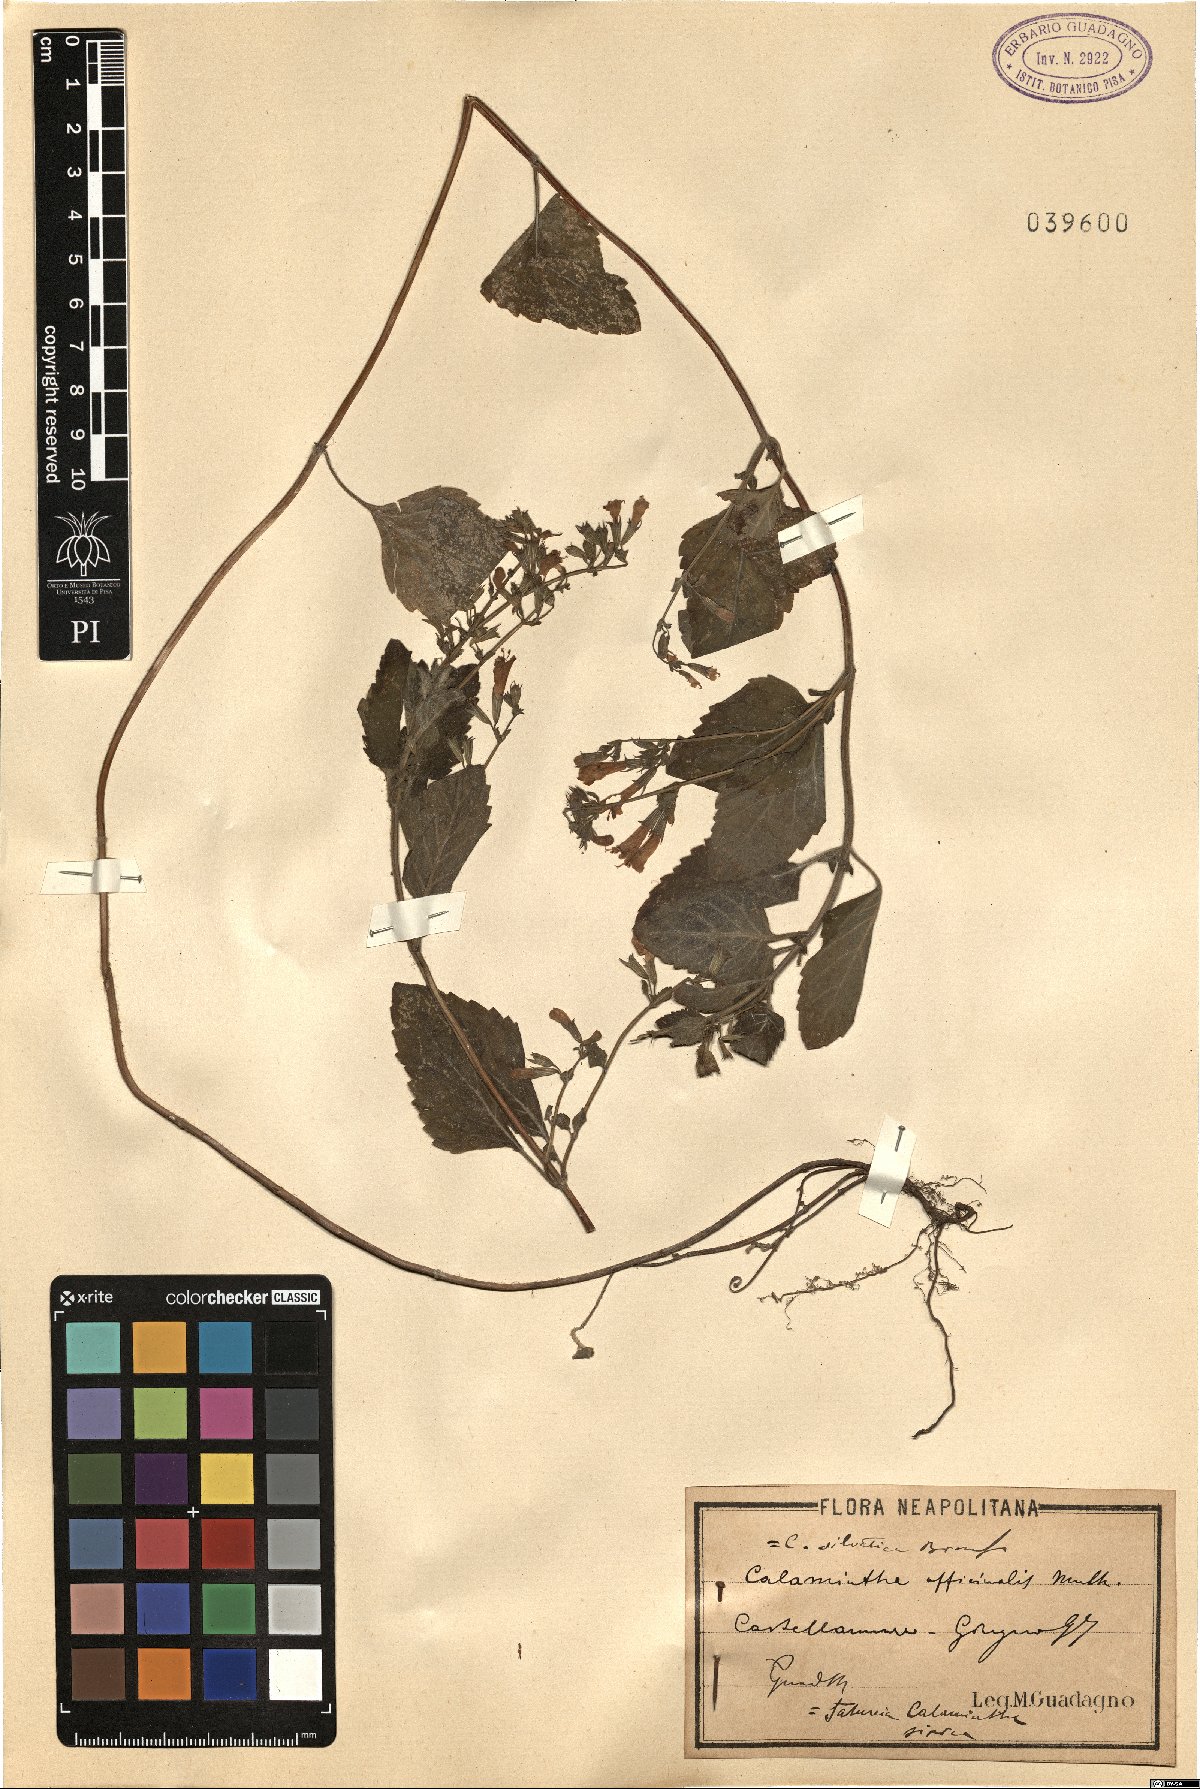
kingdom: Plantae
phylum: Tracheophyta
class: Magnoliopsida
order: Lamiales
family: Lamiaceae
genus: Clinopodium
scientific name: Clinopodium nepeta
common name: Lesser calamint
